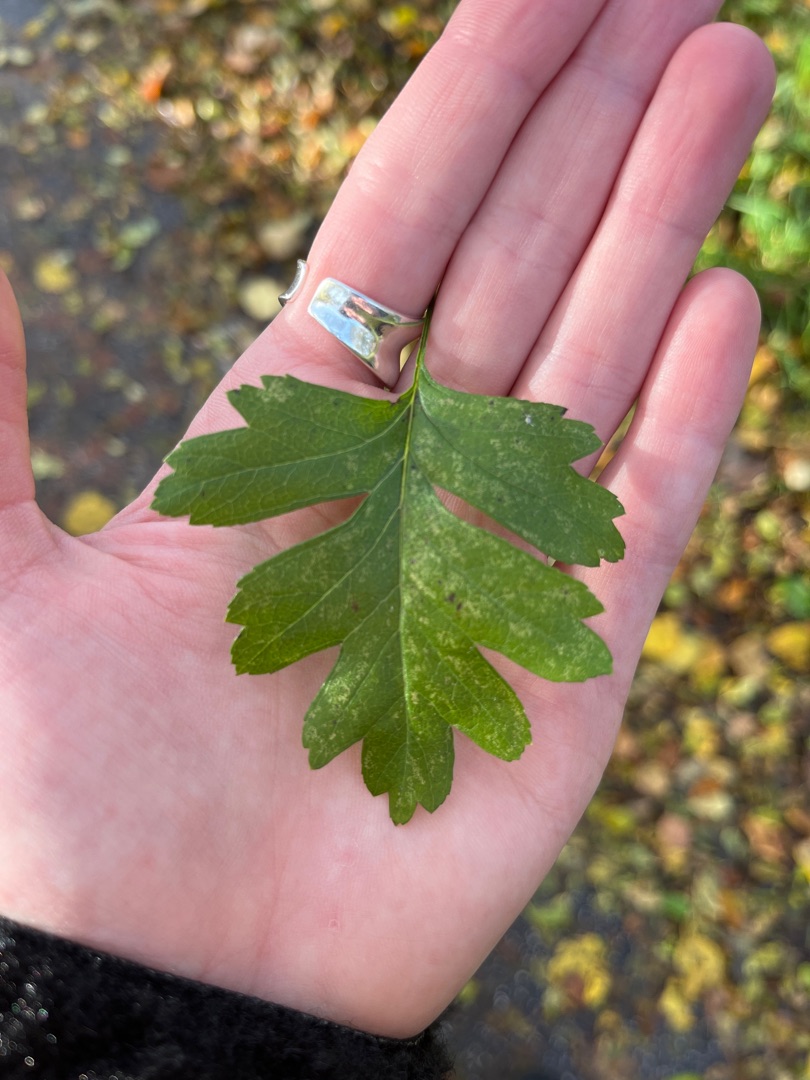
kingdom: Plantae
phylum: Tracheophyta
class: Magnoliopsida
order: Rosales
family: Rosaceae
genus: Crataegus
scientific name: Crataegus monogyna
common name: Engriflet hvidtjørn
